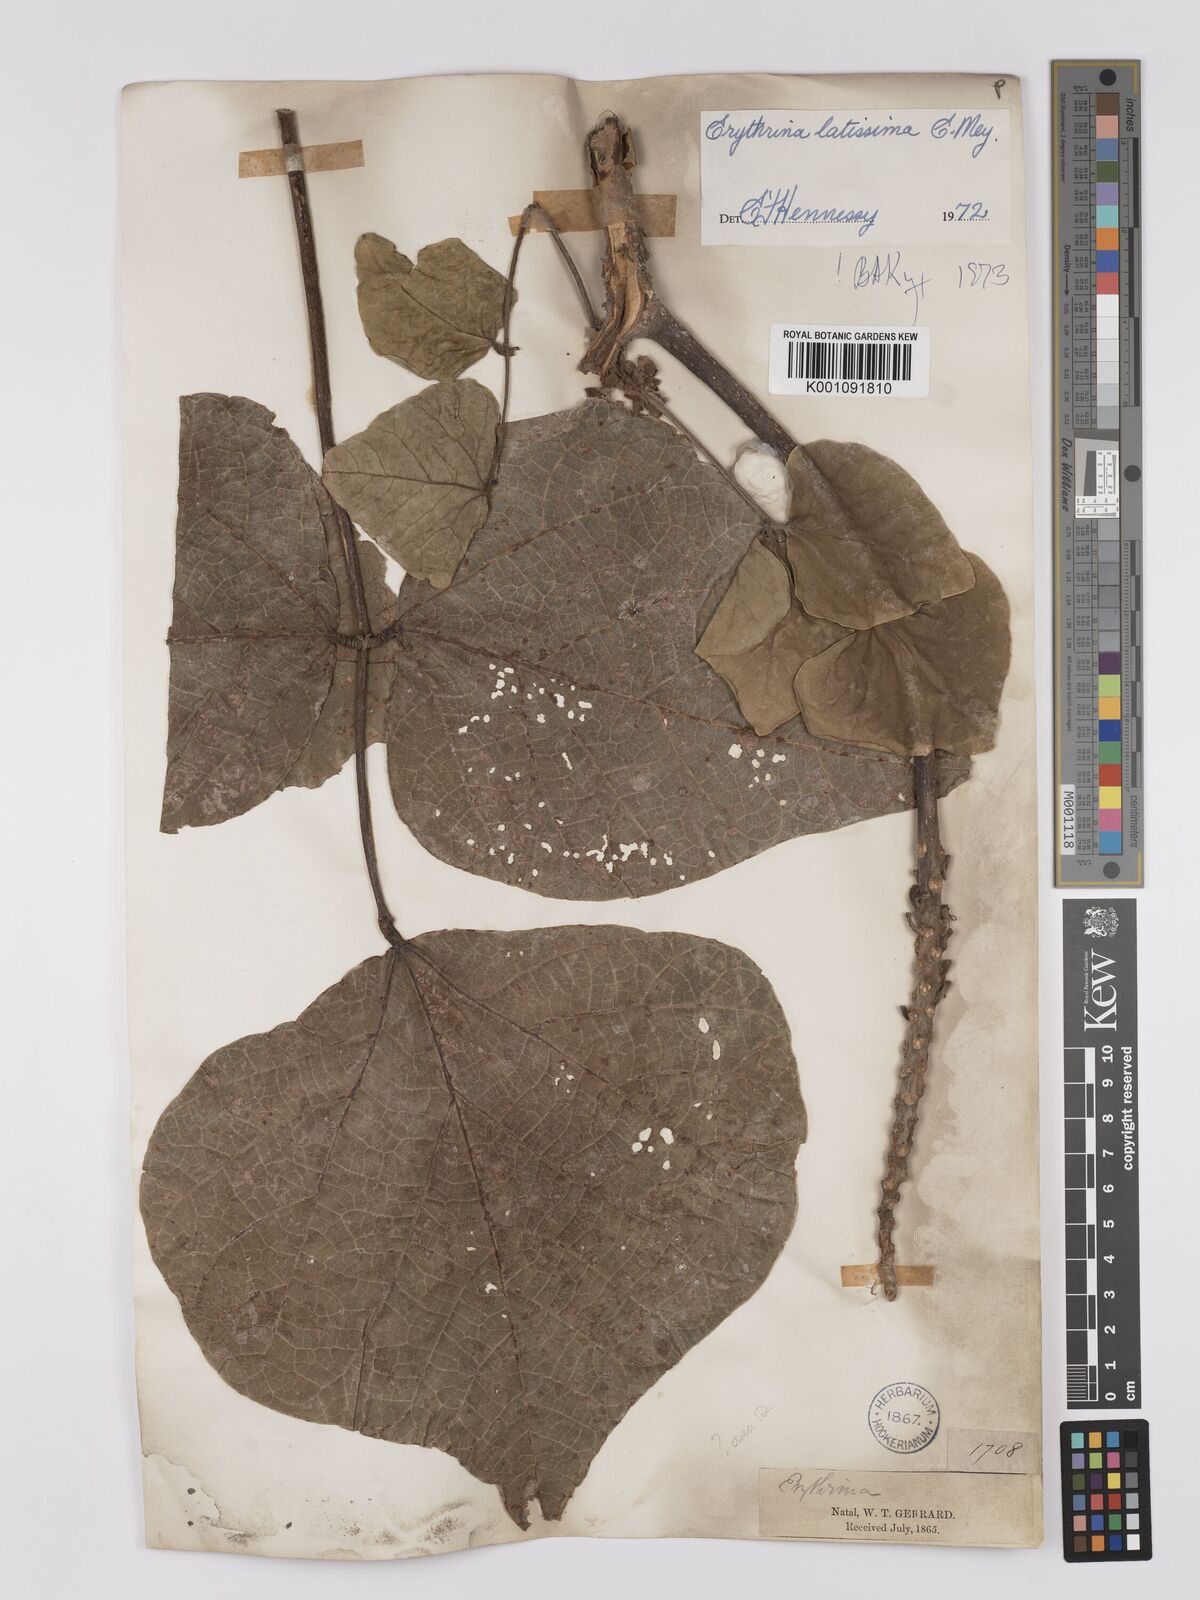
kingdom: Plantae
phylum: Tracheophyta
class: Magnoliopsida
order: Fabales
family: Fabaceae
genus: Erythrina
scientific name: Erythrina latissima
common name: Broad-leaved coral tree
